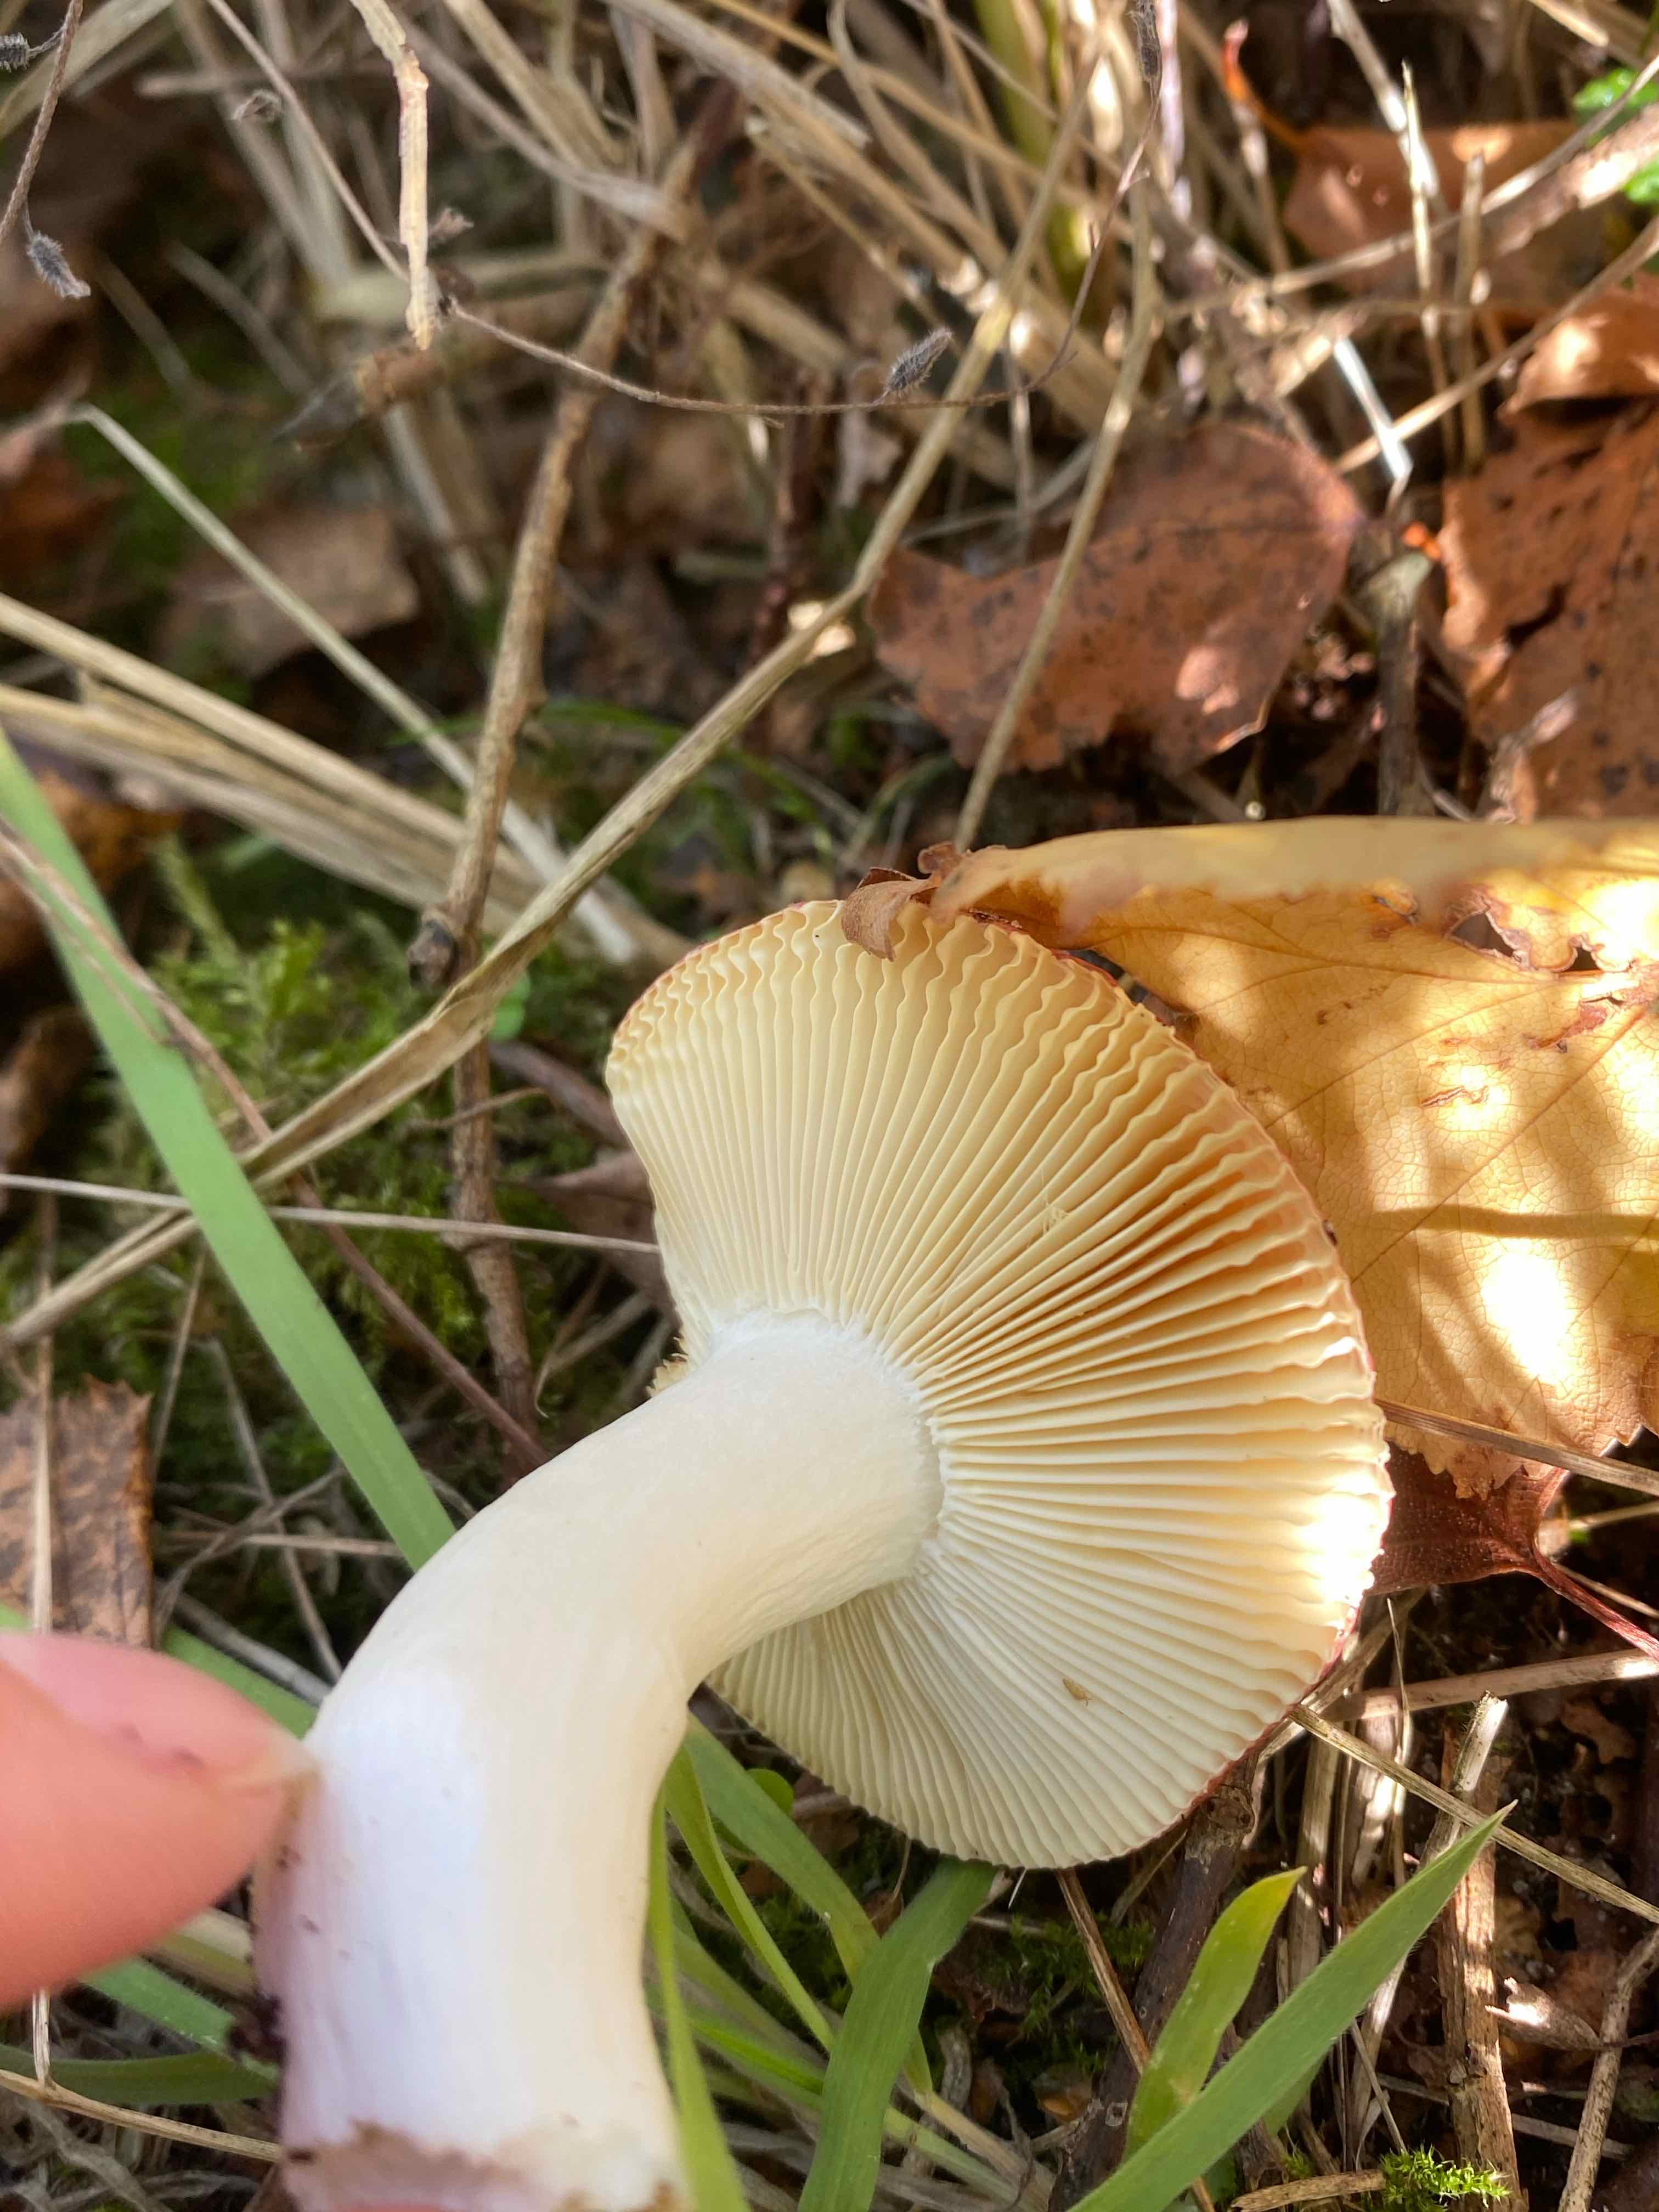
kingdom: Fungi
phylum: Basidiomycota
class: Agaricomycetes
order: Russulales
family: Russulaceae
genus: Russula
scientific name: Russula velenovskyi
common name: orangerød skørhat
